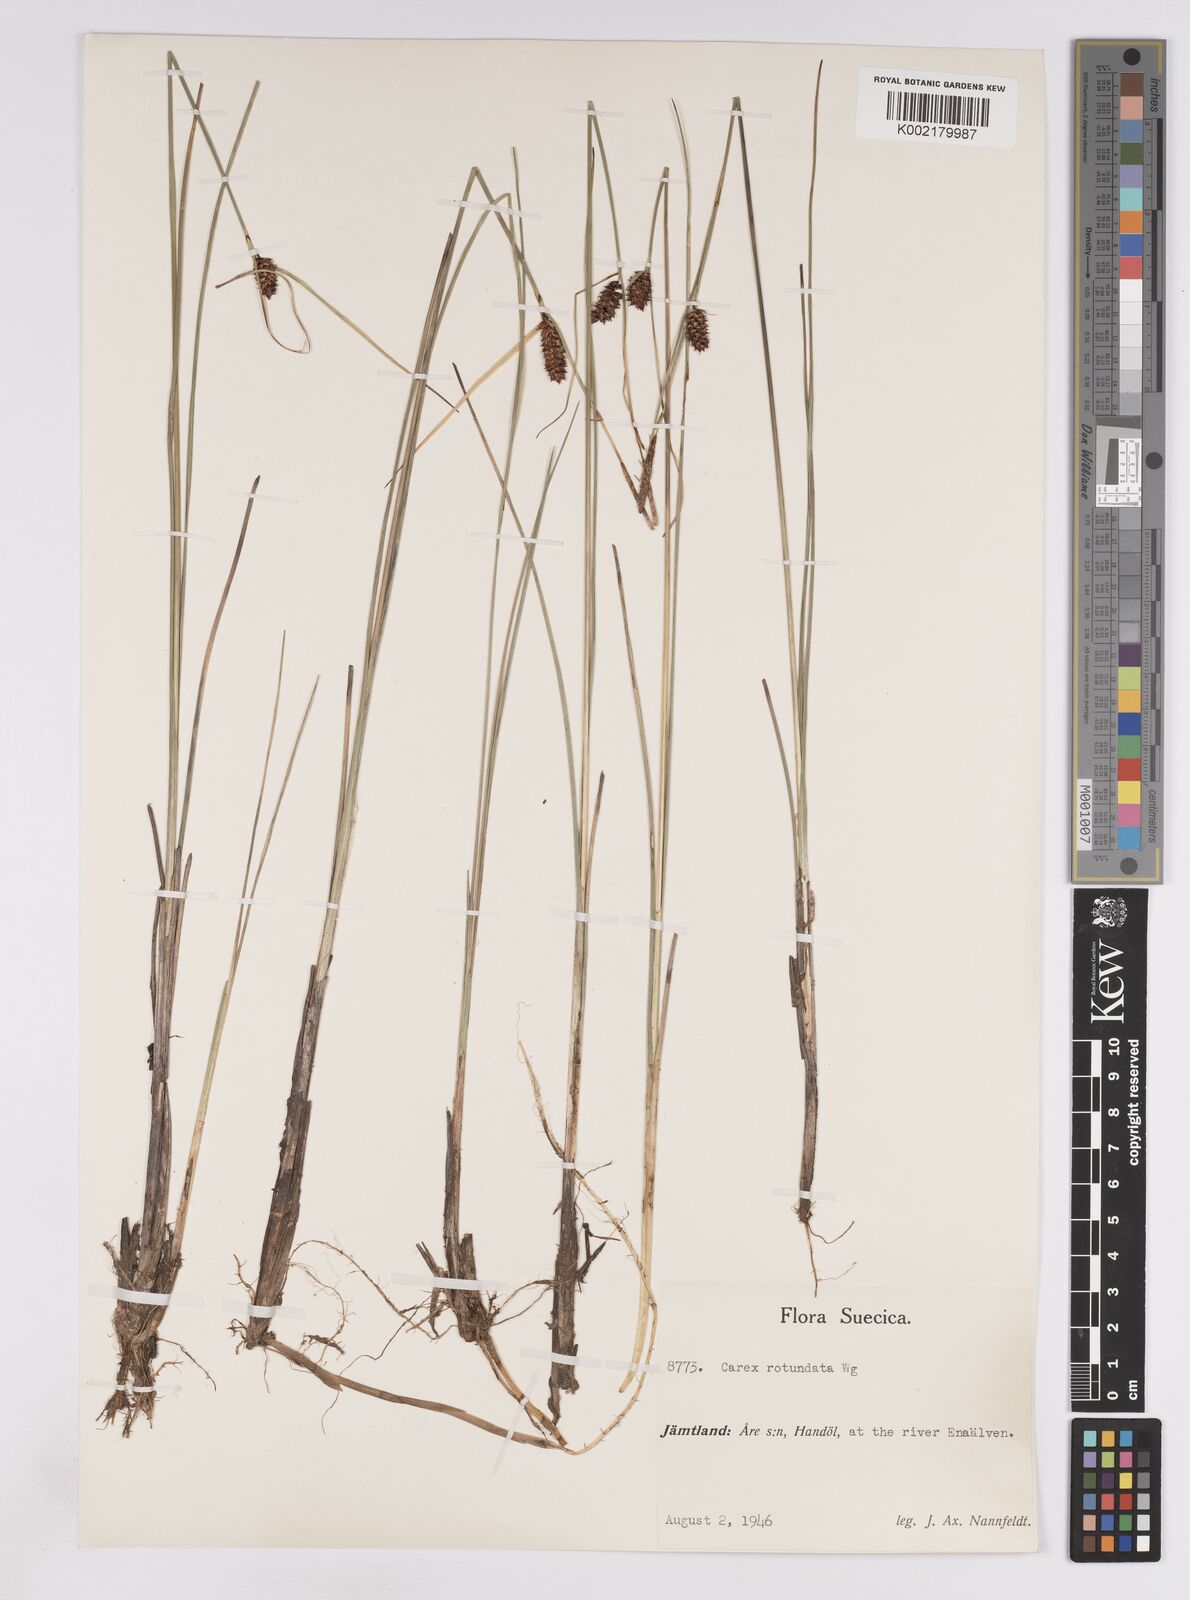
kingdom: Plantae
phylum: Tracheophyta
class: Liliopsida
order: Poales
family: Cyperaceae
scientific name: Cyperaceae
